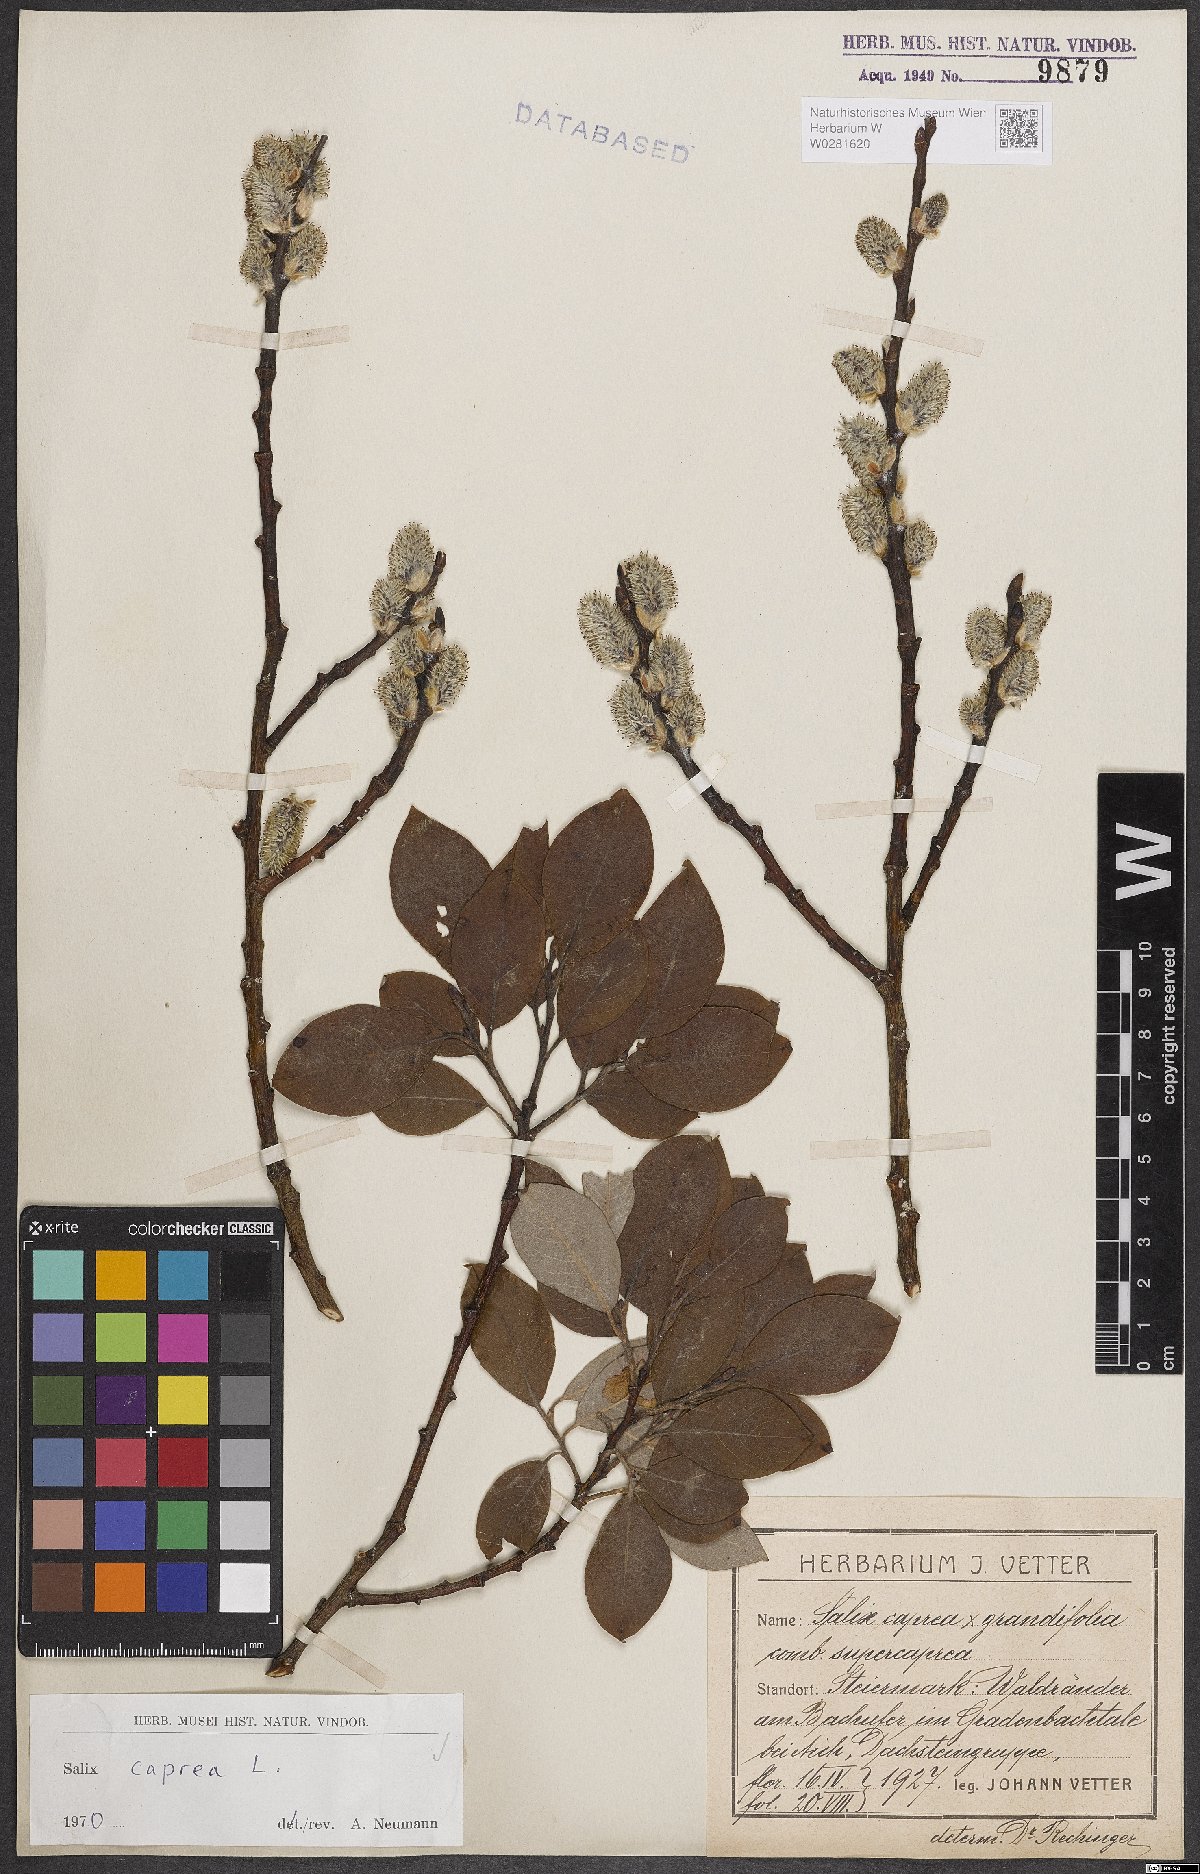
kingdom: Plantae
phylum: Tracheophyta
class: Magnoliopsida
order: Malpighiales
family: Salicaceae
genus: Salix
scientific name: Salix caprea
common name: Goat willow
